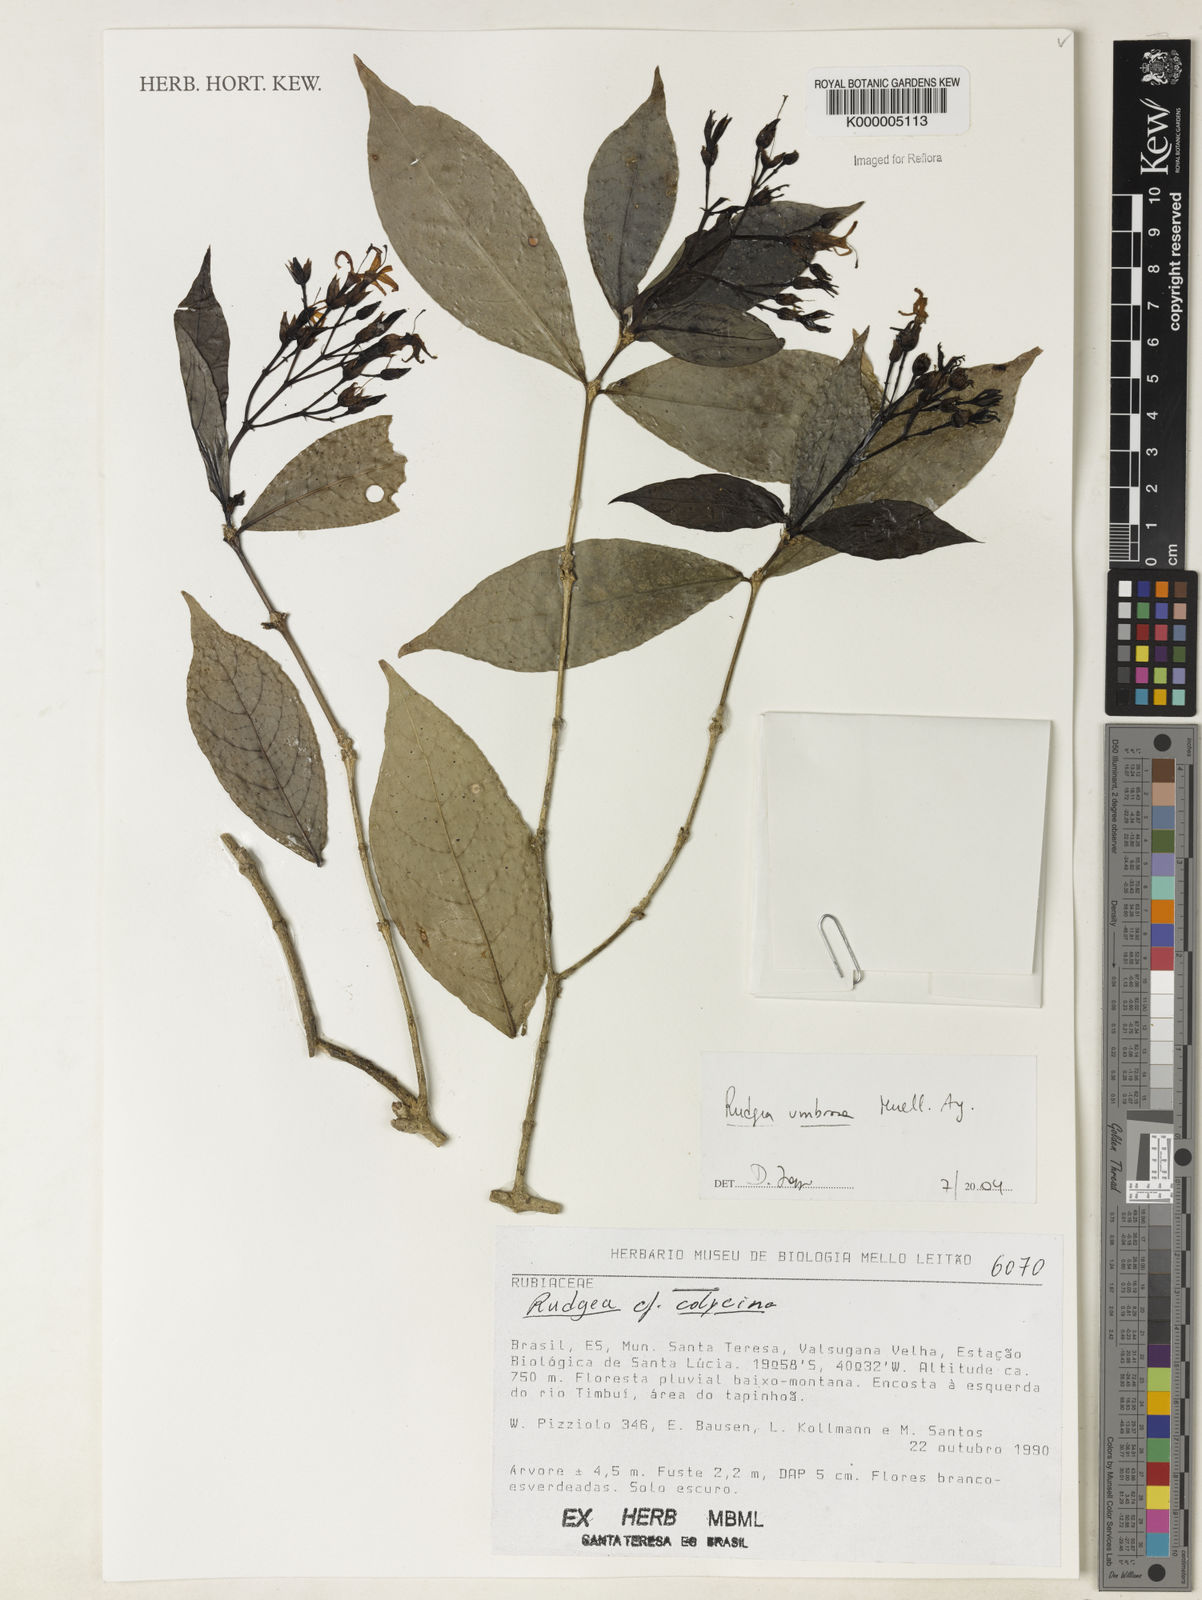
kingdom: Plantae
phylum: Tracheophyta
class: Magnoliopsida
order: Gentianales
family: Rubiaceae
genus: Rudgea
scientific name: Rudgea umbrosa
